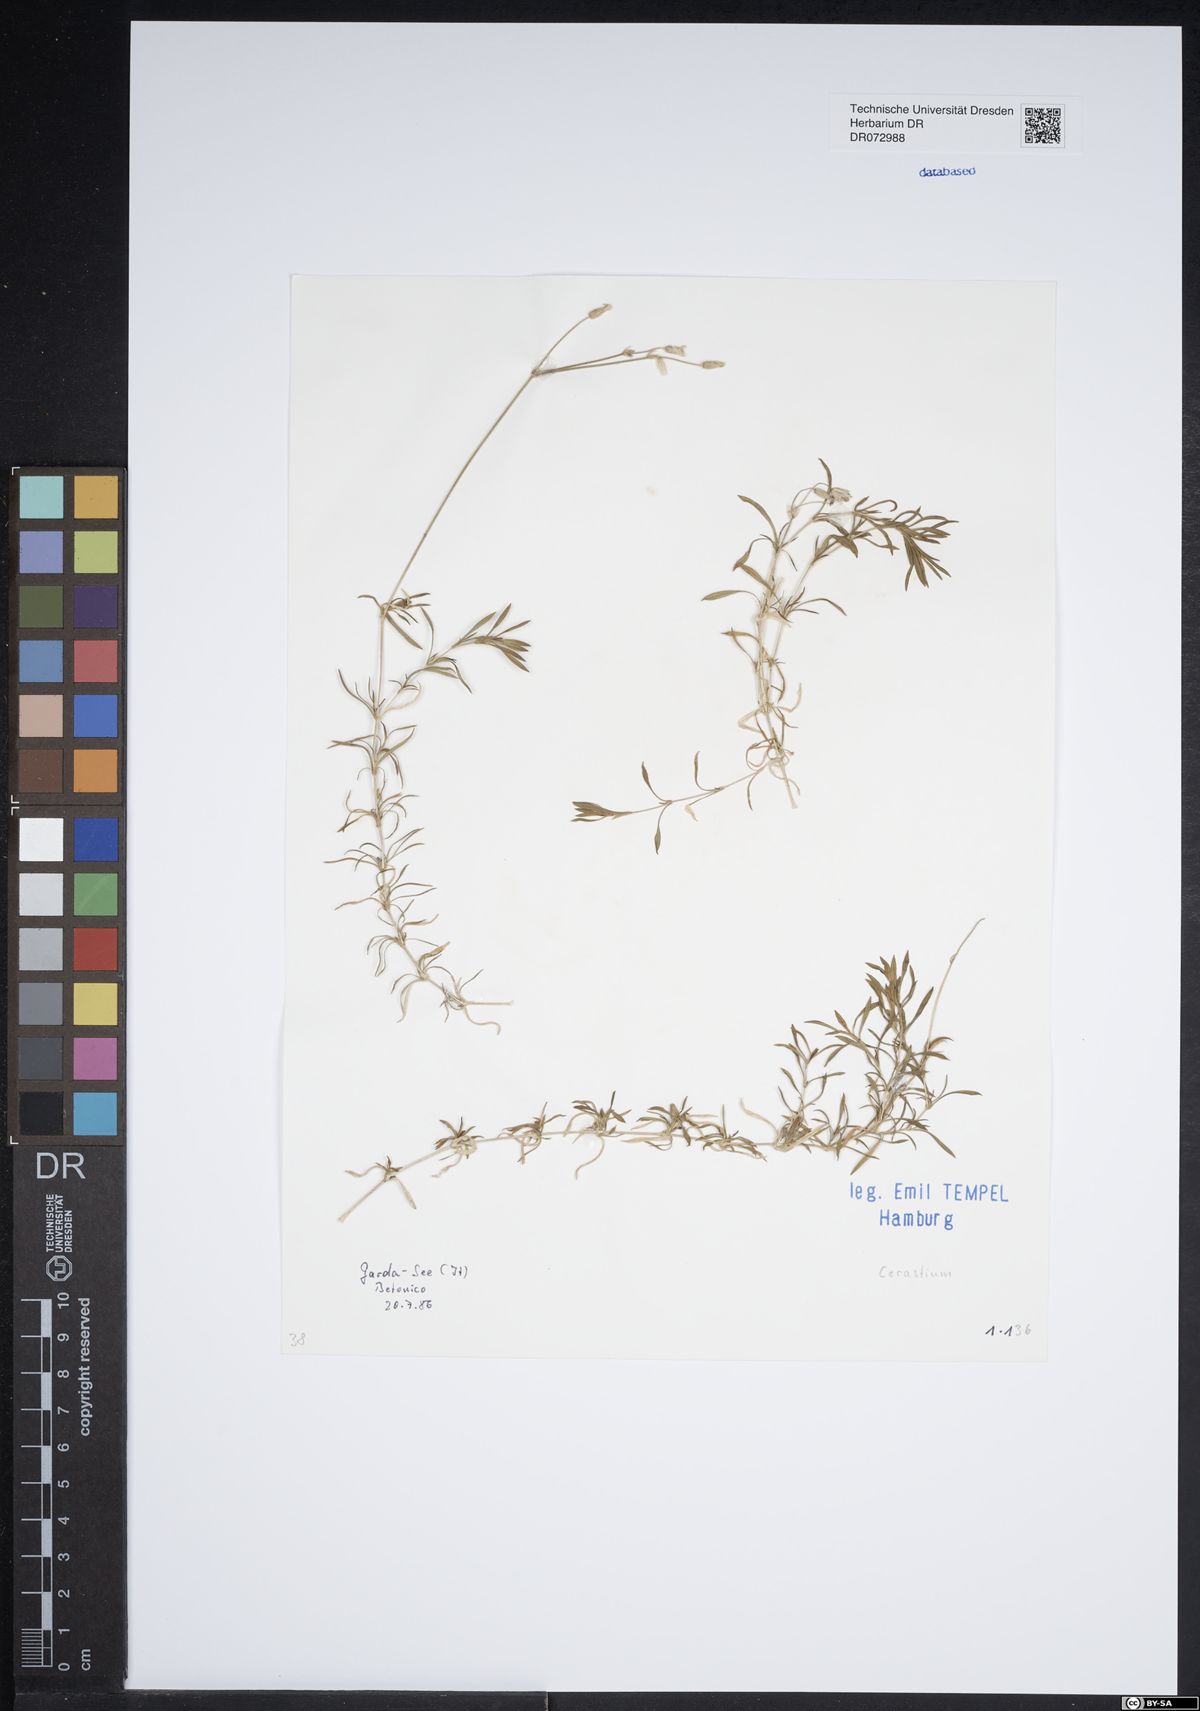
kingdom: Plantae
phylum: Tracheophyta
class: Magnoliopsida
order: Caryophyllales
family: Caryophyllaceae
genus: Cerastium
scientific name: Cerastium
